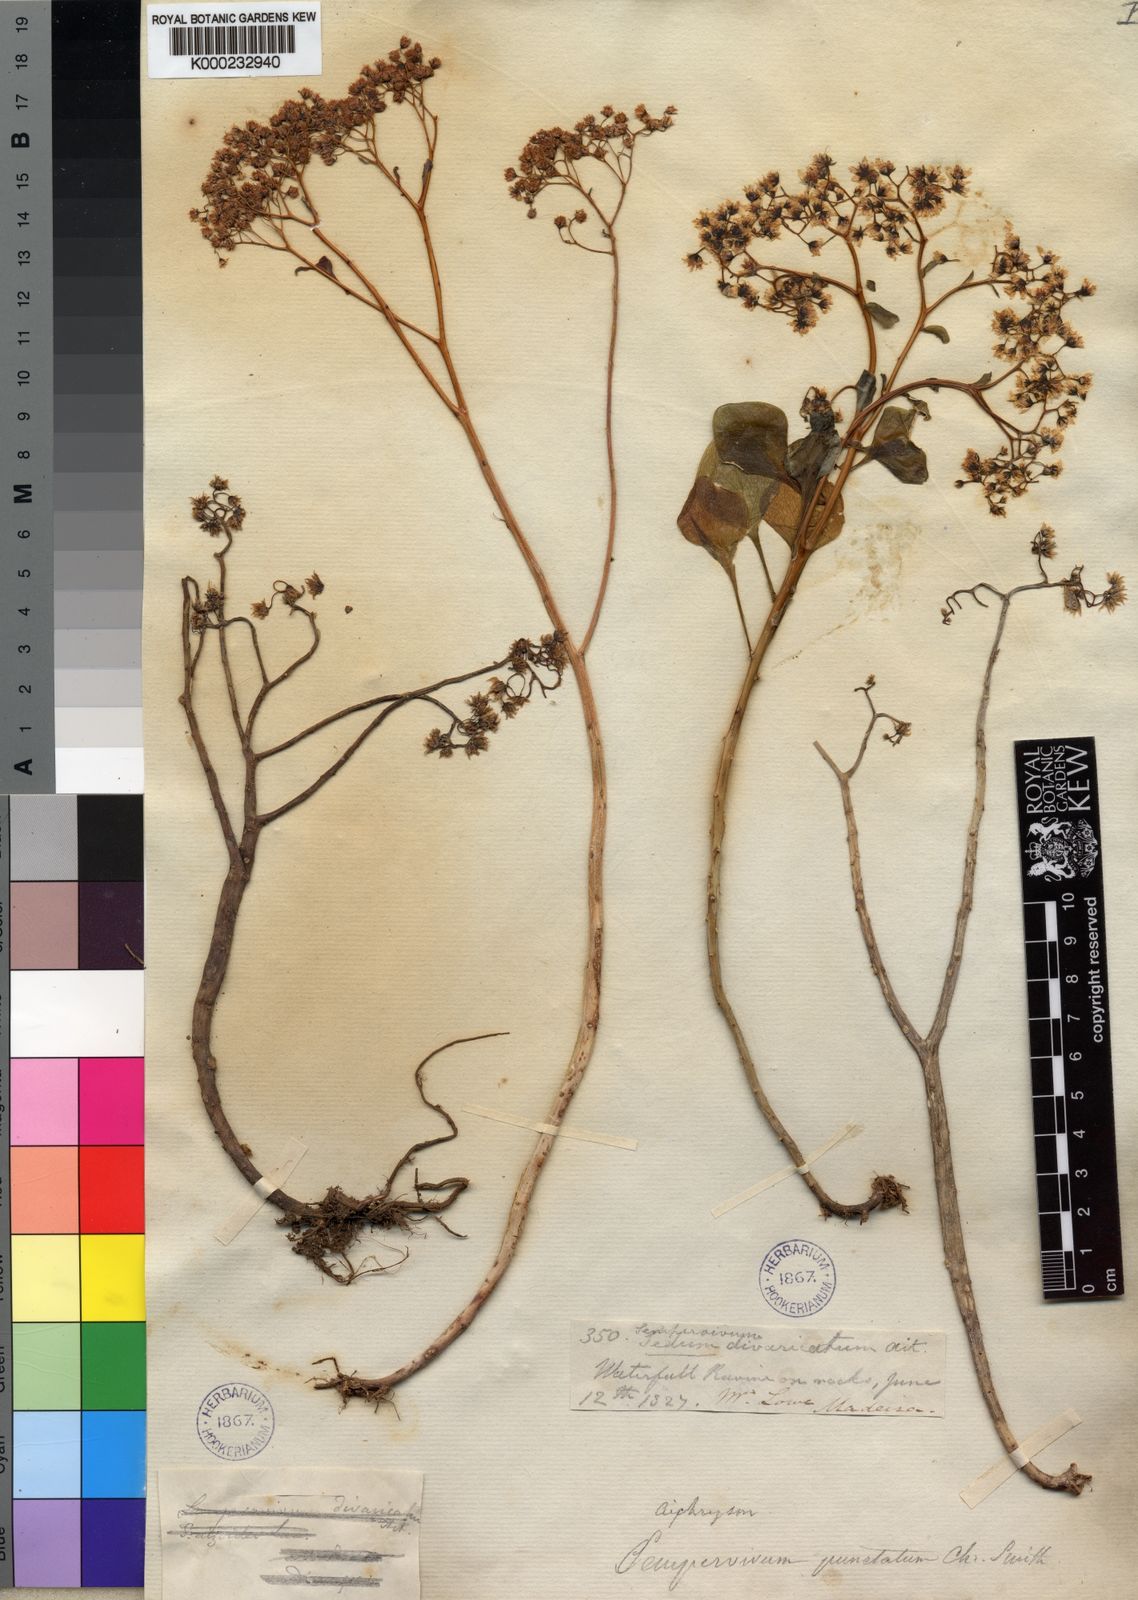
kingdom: Plantae
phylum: Tracheophyta
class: Magnoliopsida
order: Saxifragales
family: Crassulaceae
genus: Aichryson
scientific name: Aichryson divaricatum
